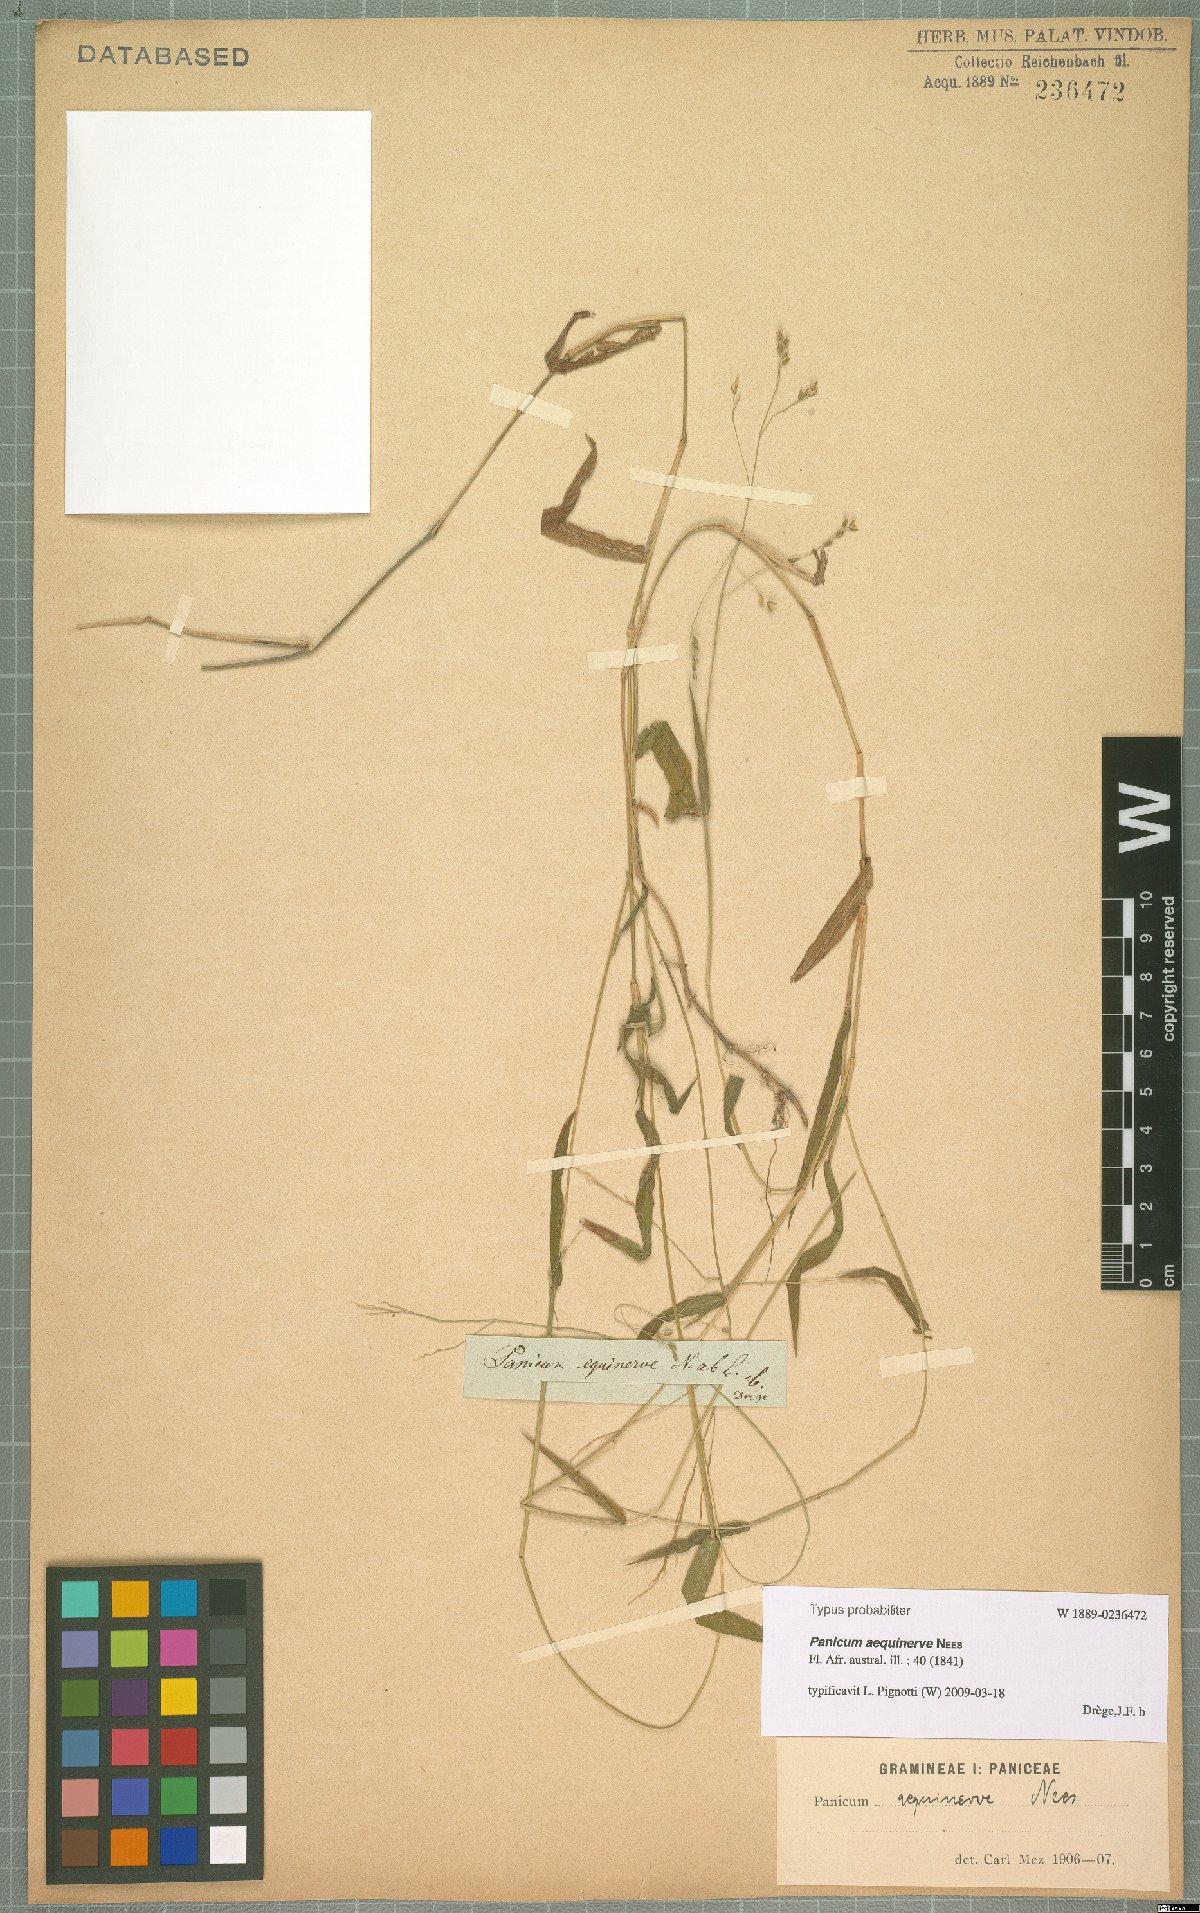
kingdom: Plantae
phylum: Tracheophyta
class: Liliopsida
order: Poales
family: Poaceae
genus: Panicum
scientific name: Panicum aequinerve
